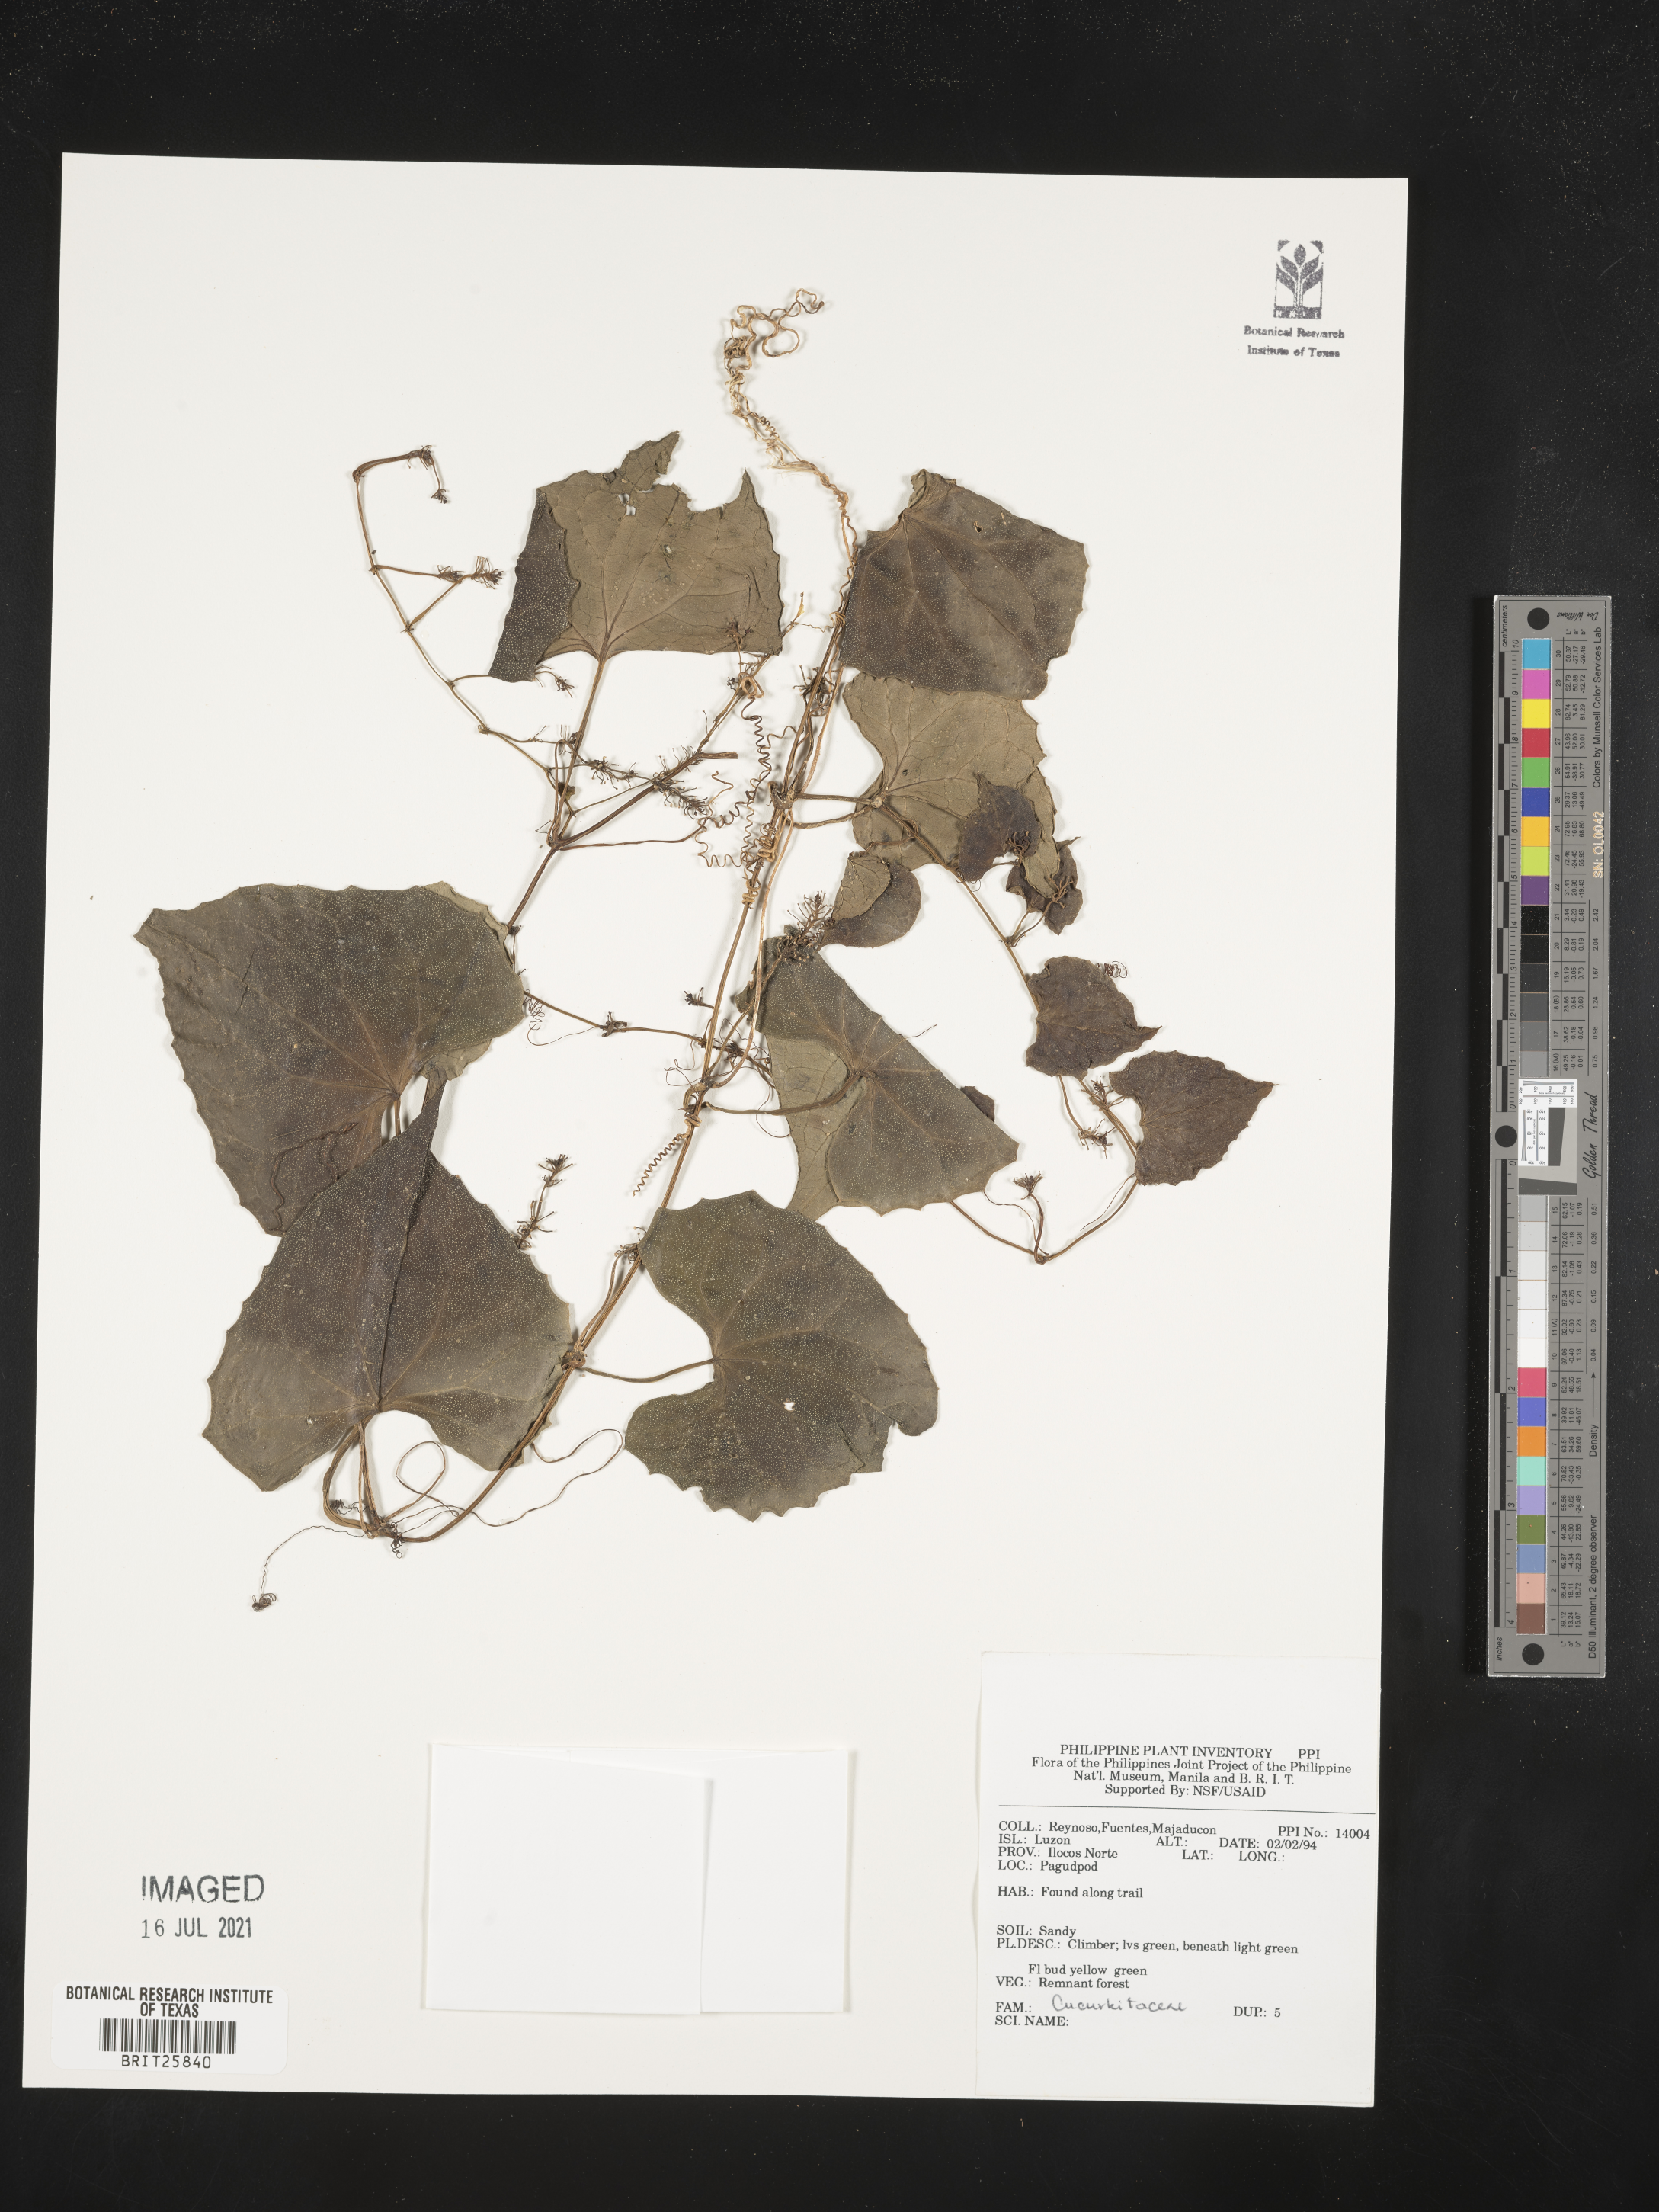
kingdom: Plantae
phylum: Tracheophyta
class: Magnoliopsida
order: Cucurbitales
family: Cucurbitaceae
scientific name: Cucurbitaceae
